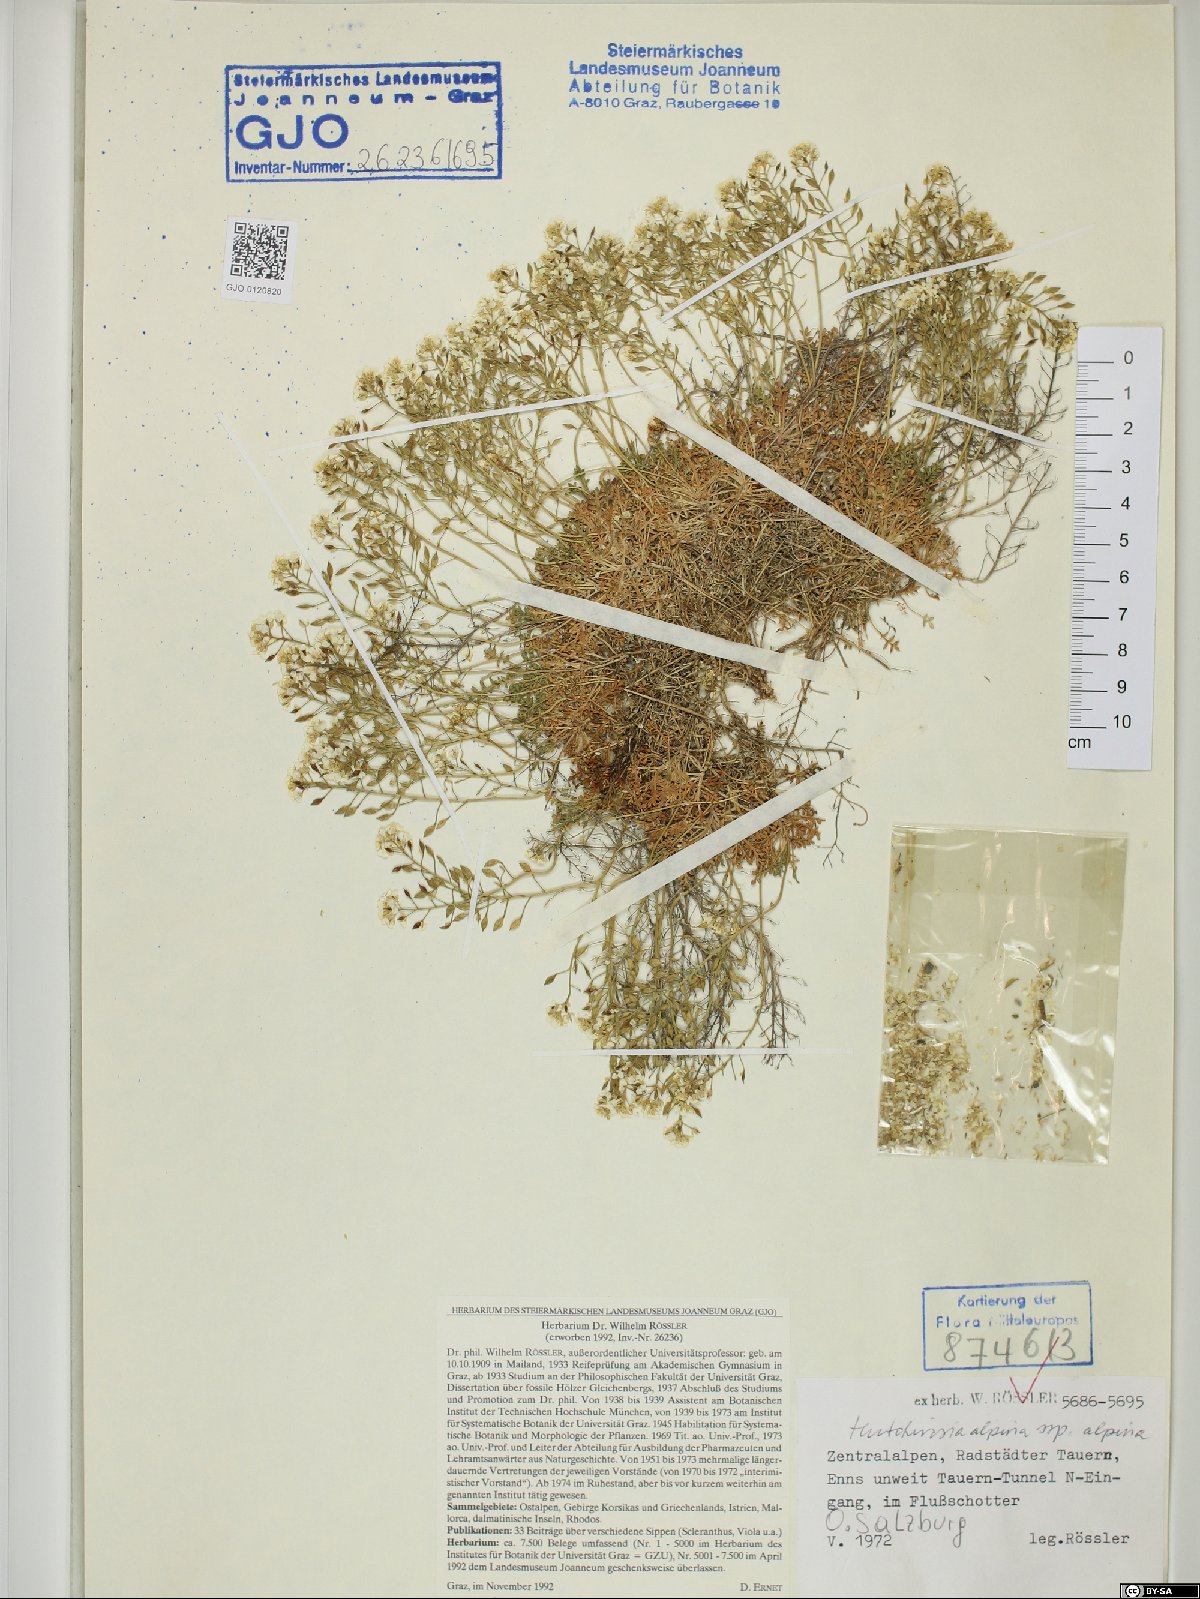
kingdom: Plantae
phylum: Tracheophyta
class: Magnoliopsida
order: Brassicales
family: Brassicaceae
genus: Hornungia
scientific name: Hornungia alpina
